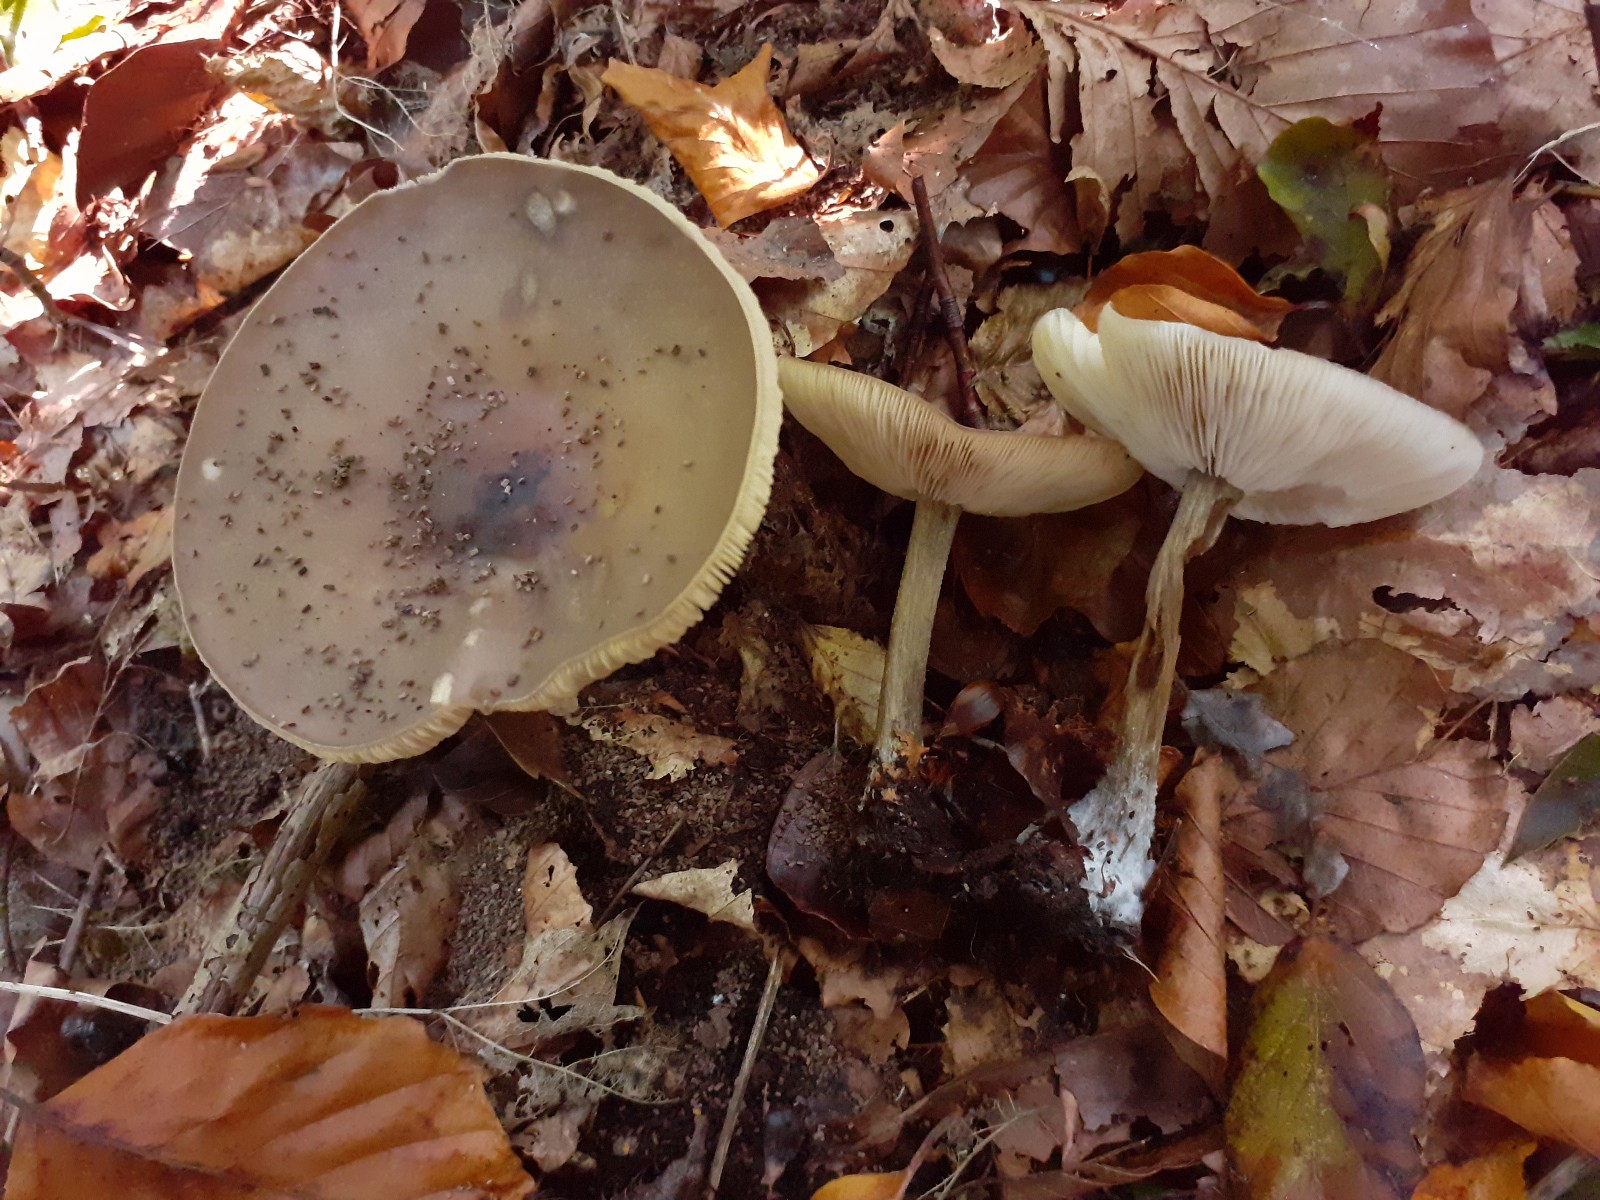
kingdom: Fungi
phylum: Basidiomycota
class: Agaricomycetes
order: Agaricales
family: Tricholomataceae
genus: Melanoleuca
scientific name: Melanoleuca polioleuca
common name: hvidbladet munkehat
